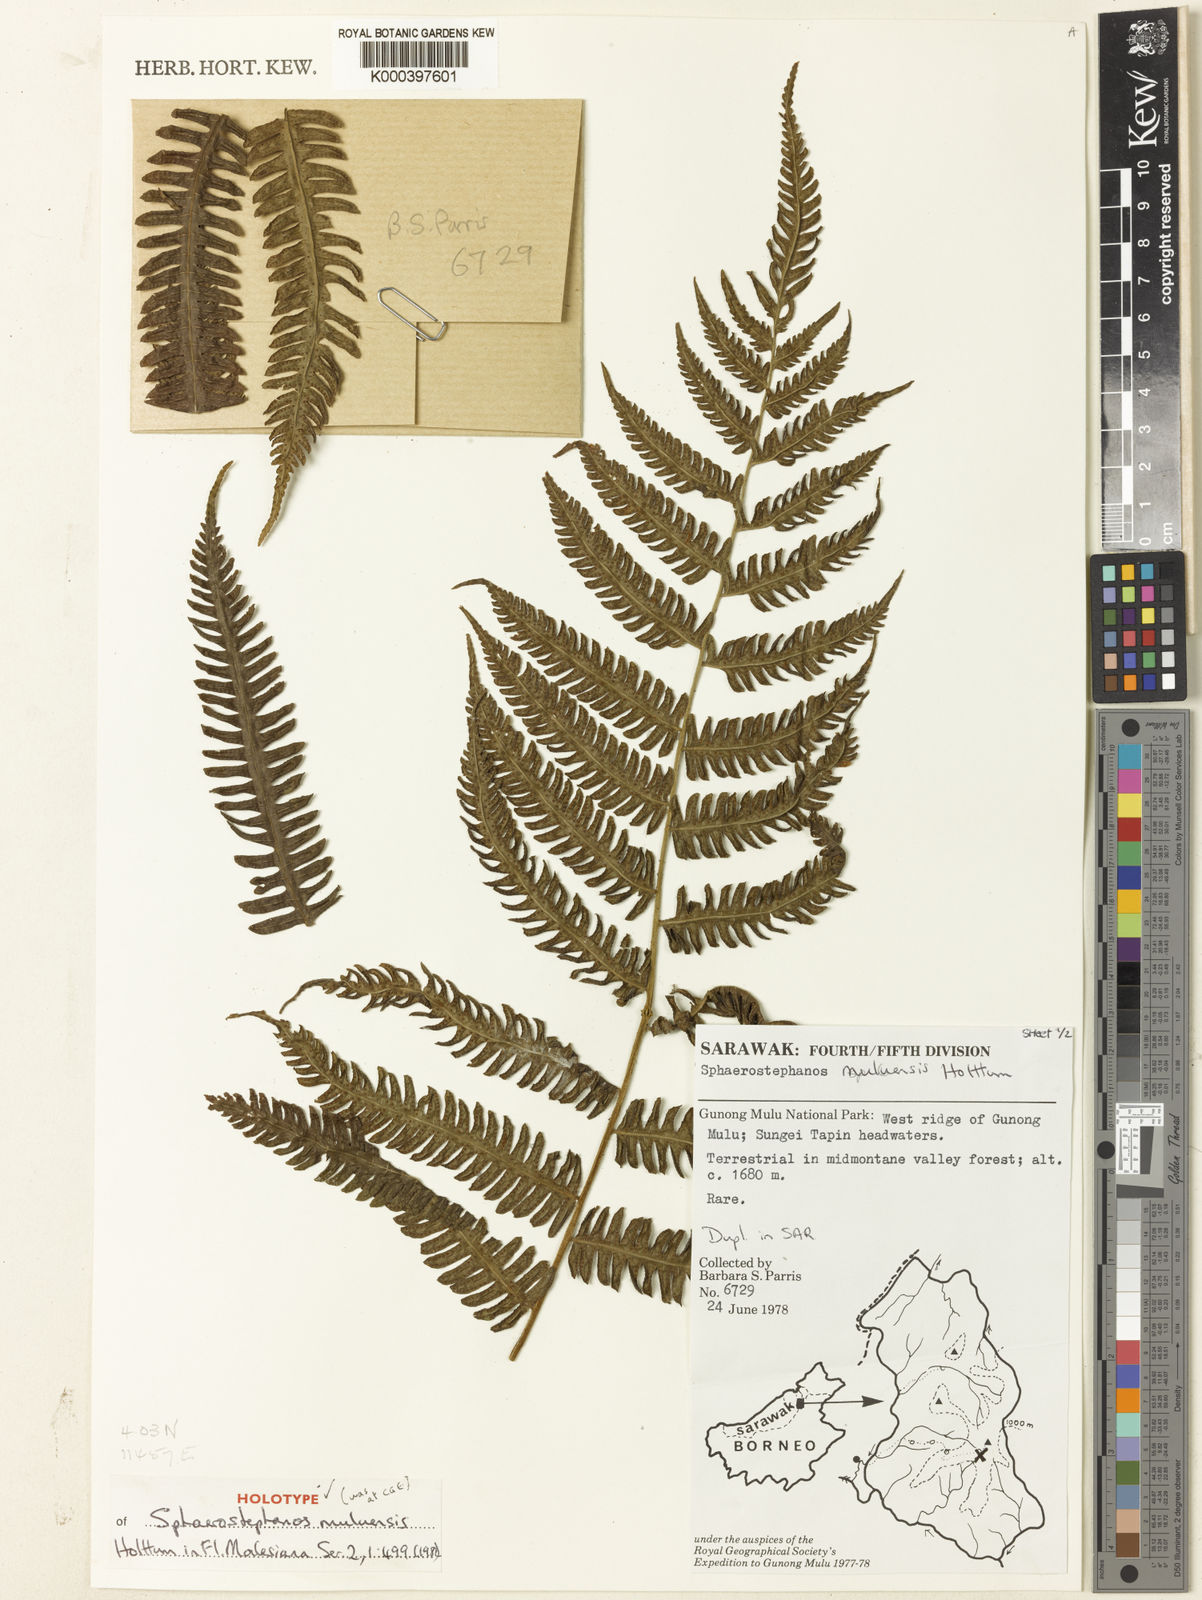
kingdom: Plantae
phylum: Tracheophyta
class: Polypodiopsida
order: Polypodiales
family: Thelypteridaceae
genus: Sphaerostephanos
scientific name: Sphaerostephanos muluensis
